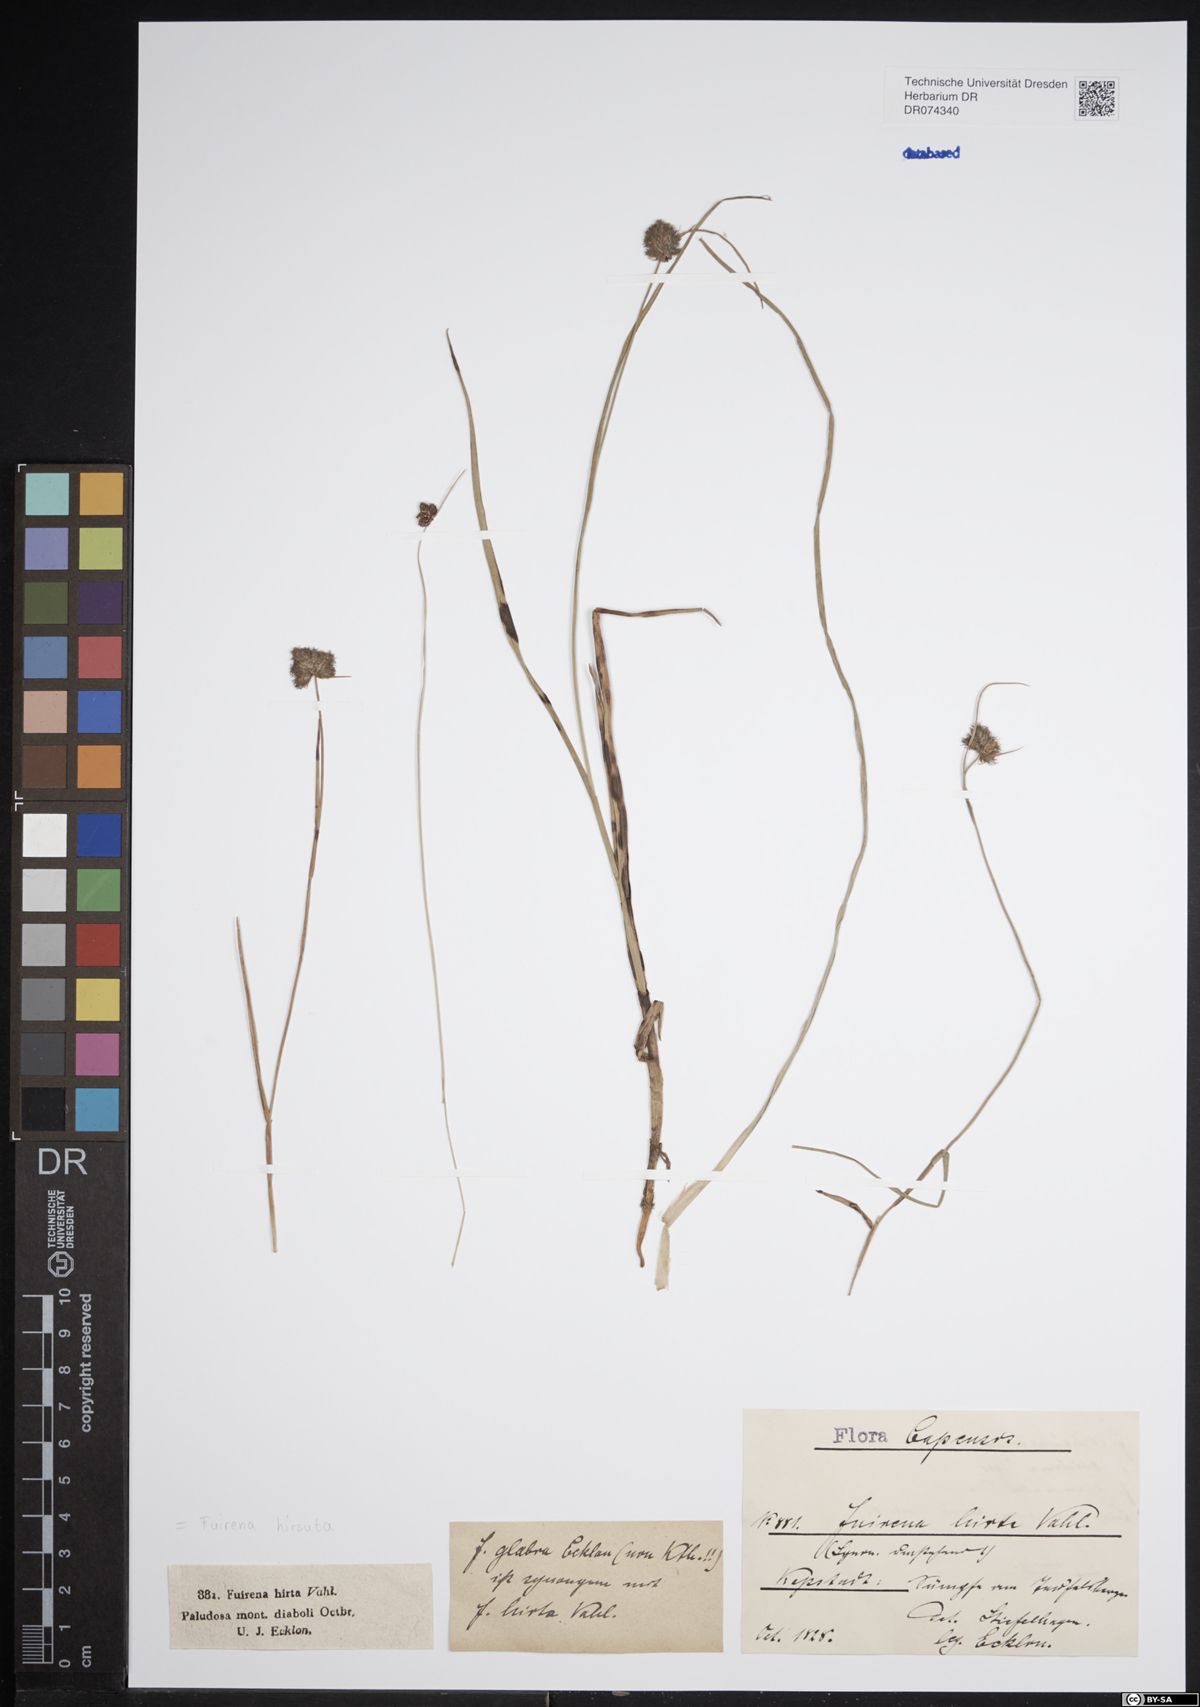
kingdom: Plantae
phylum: Tracheophyta
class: Liliopsida
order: Poales
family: Cyperaceae
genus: Fuirena
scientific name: Fuirena hirsuta
